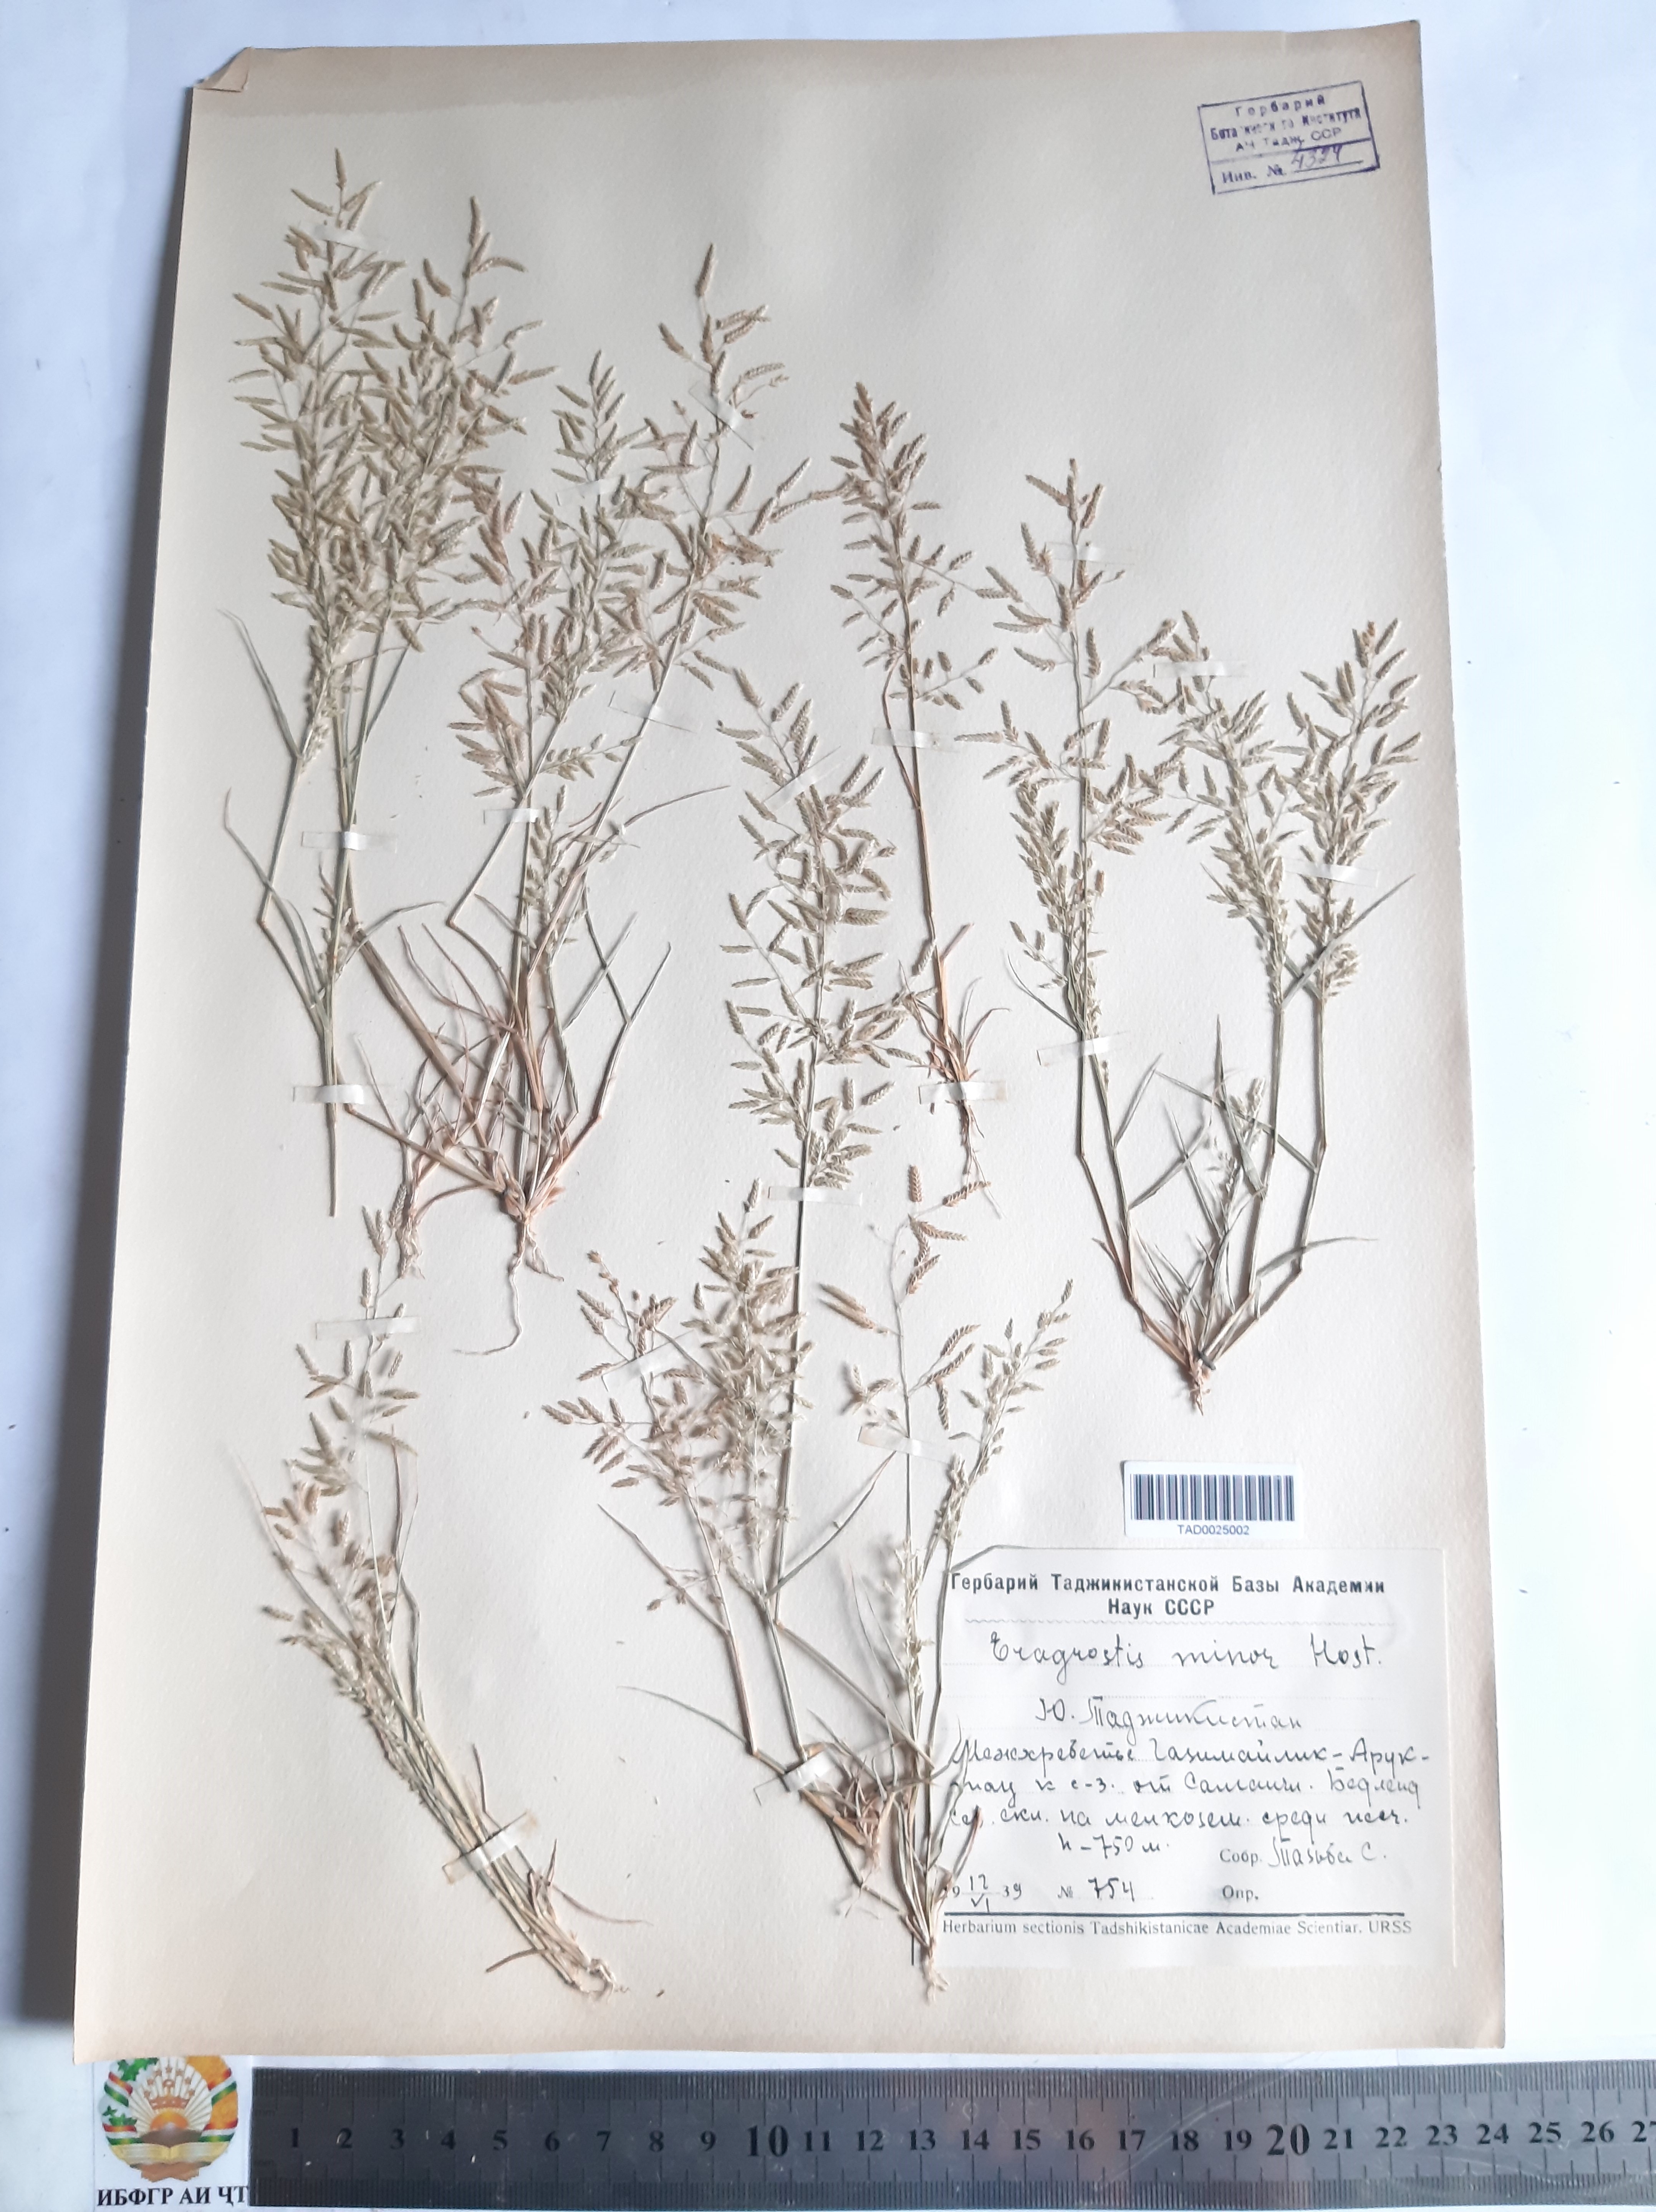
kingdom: Plantae
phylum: Tracheophyta
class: Liliopsida
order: Poales
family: Poaceae
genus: Eragrostis
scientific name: Eragrostis minor
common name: Small love-grass
